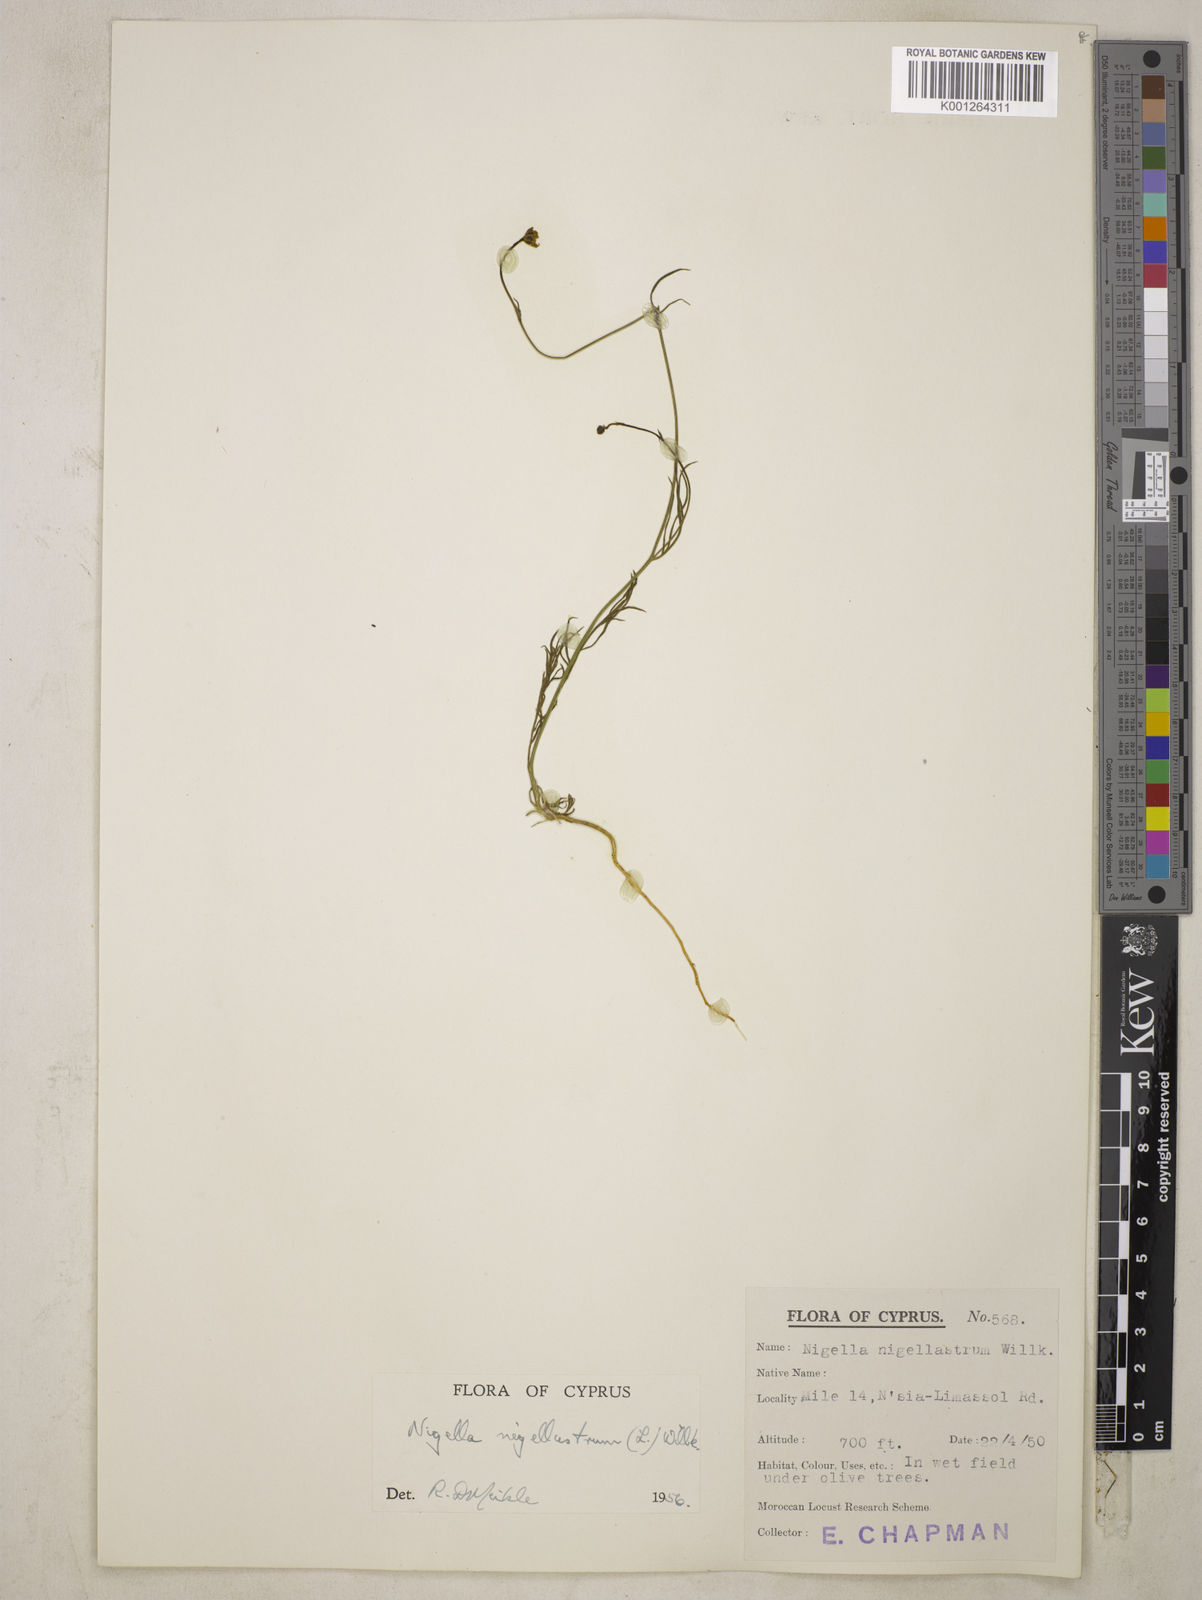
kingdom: Plantae
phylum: Tracheophyta
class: Magnoliopsida
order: Ranunculales
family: Ranunculaceae
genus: Garidella
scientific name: Garidella nigellastrum
